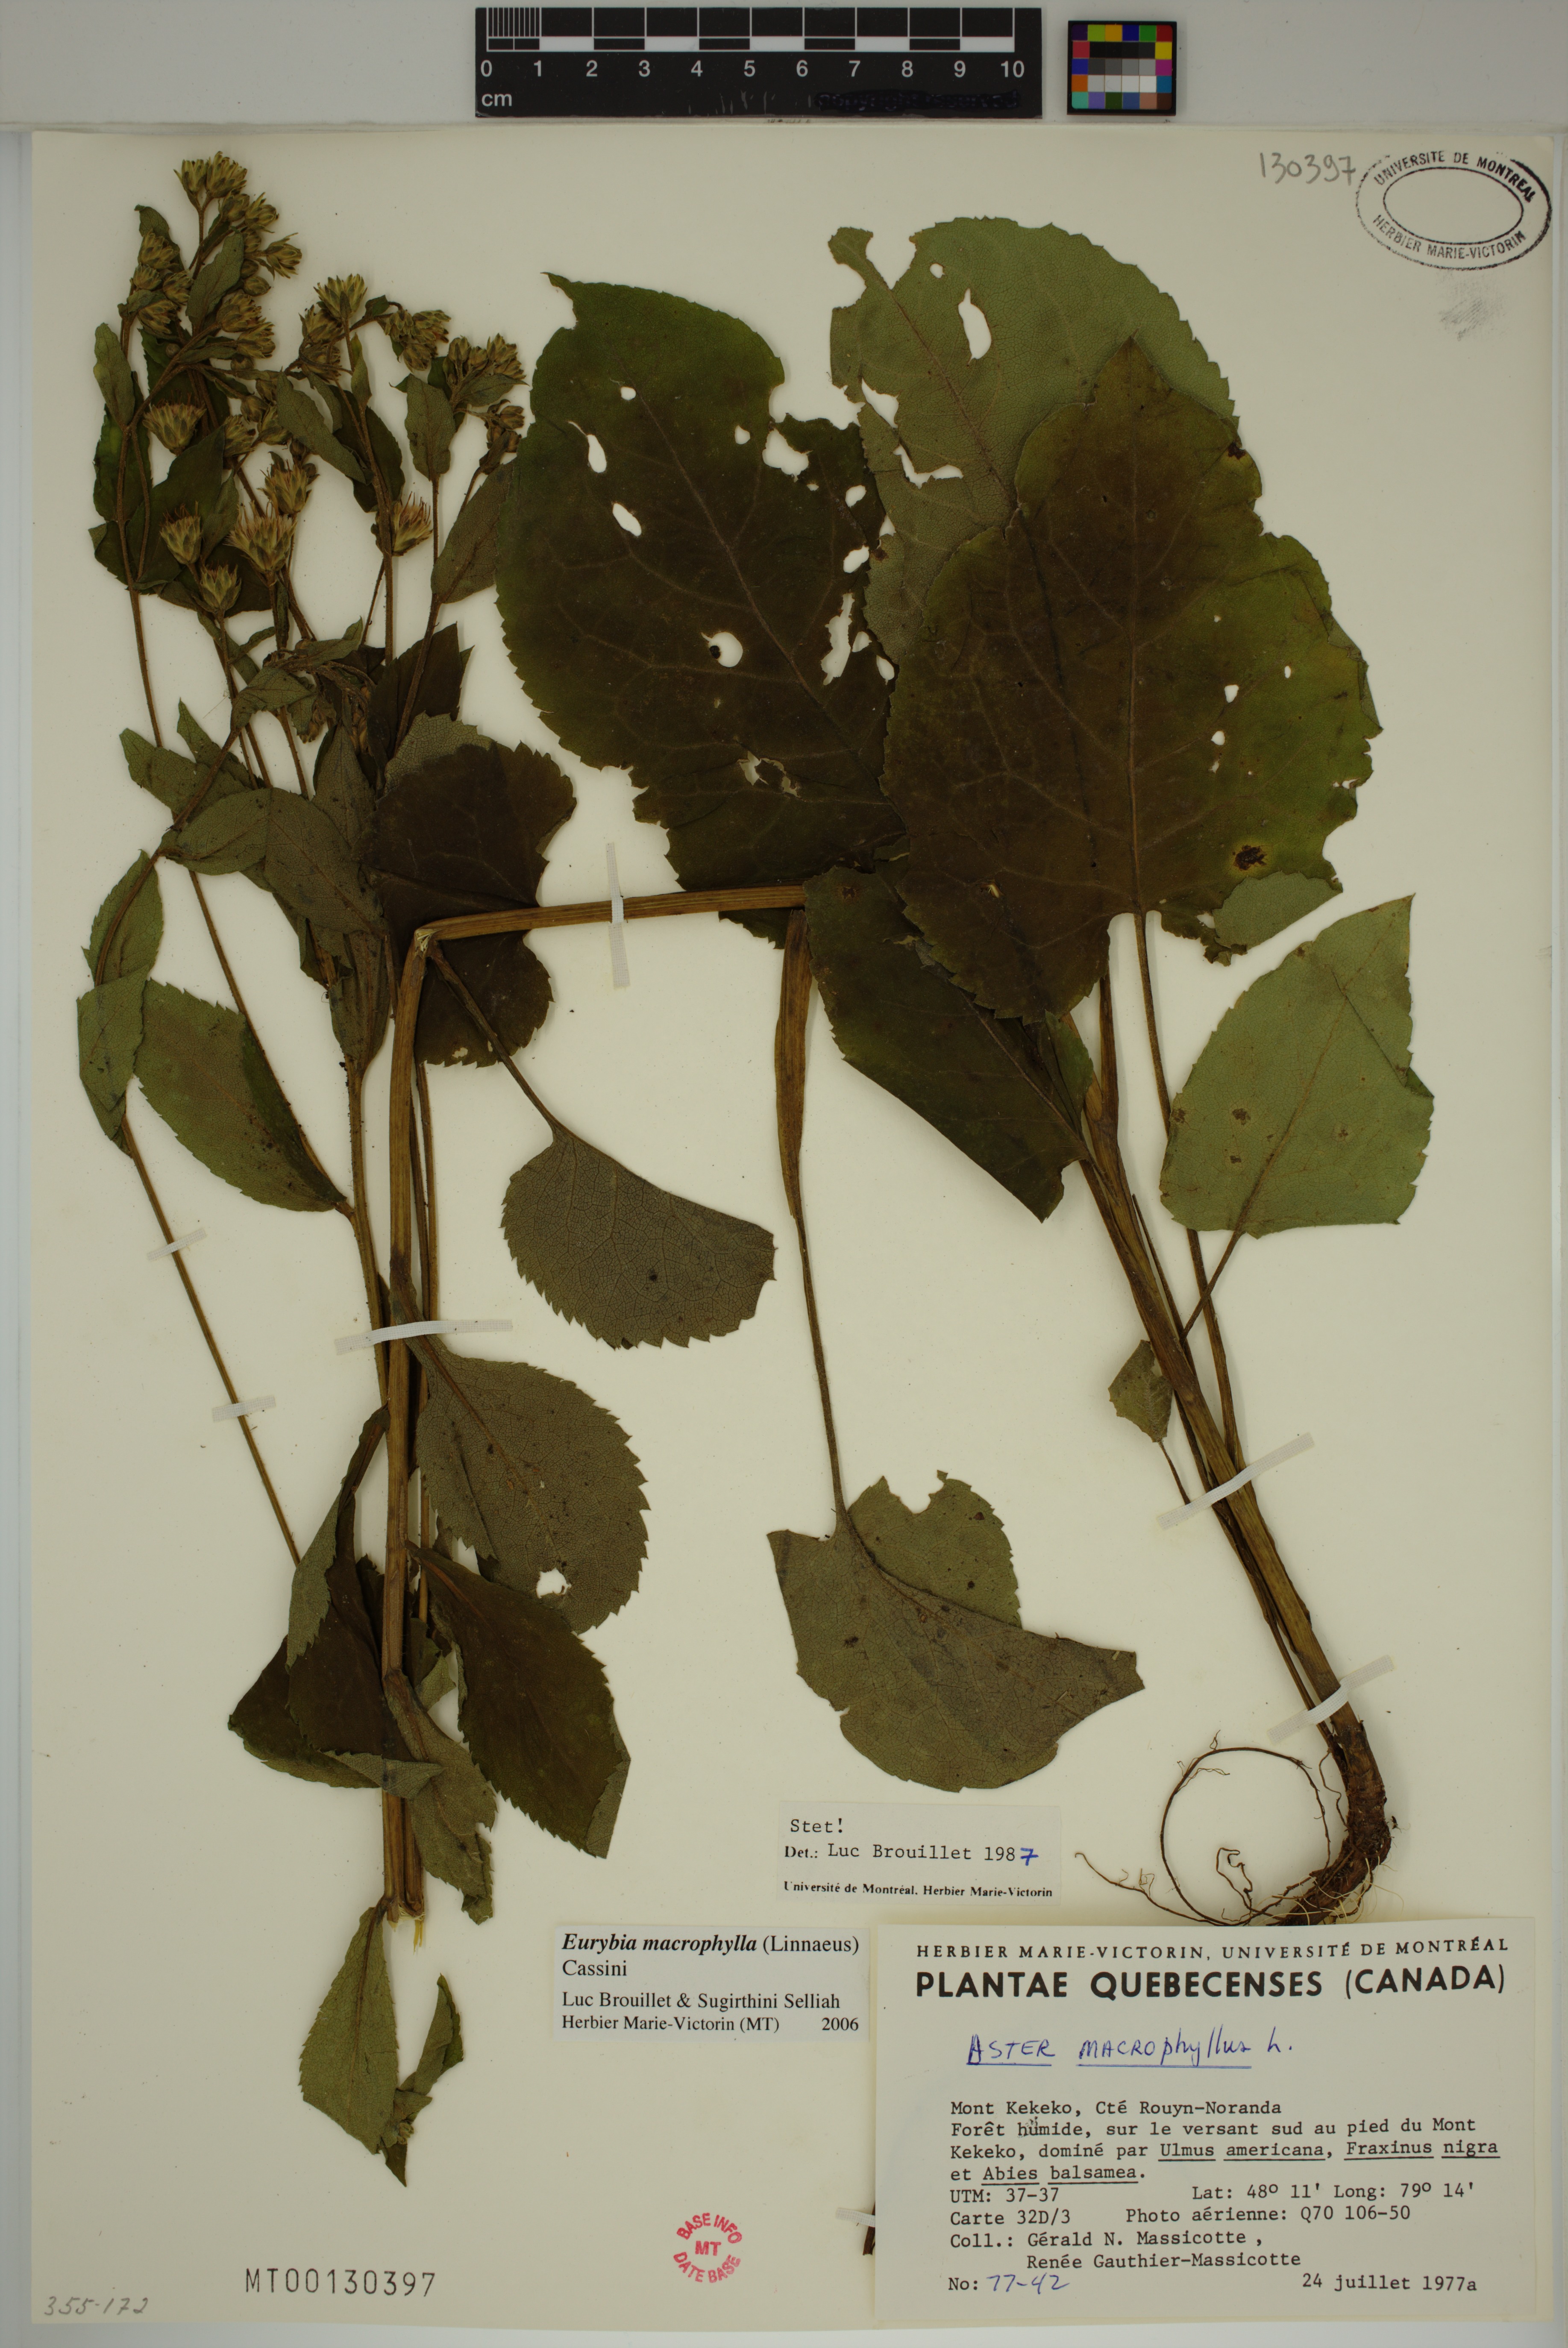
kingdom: Plantae
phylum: Tracheophyta
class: Magnoliopsida
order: Asterales
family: Asteraceae
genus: Eurybia
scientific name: Eurybia macrophylla
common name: Big-leaved aster
